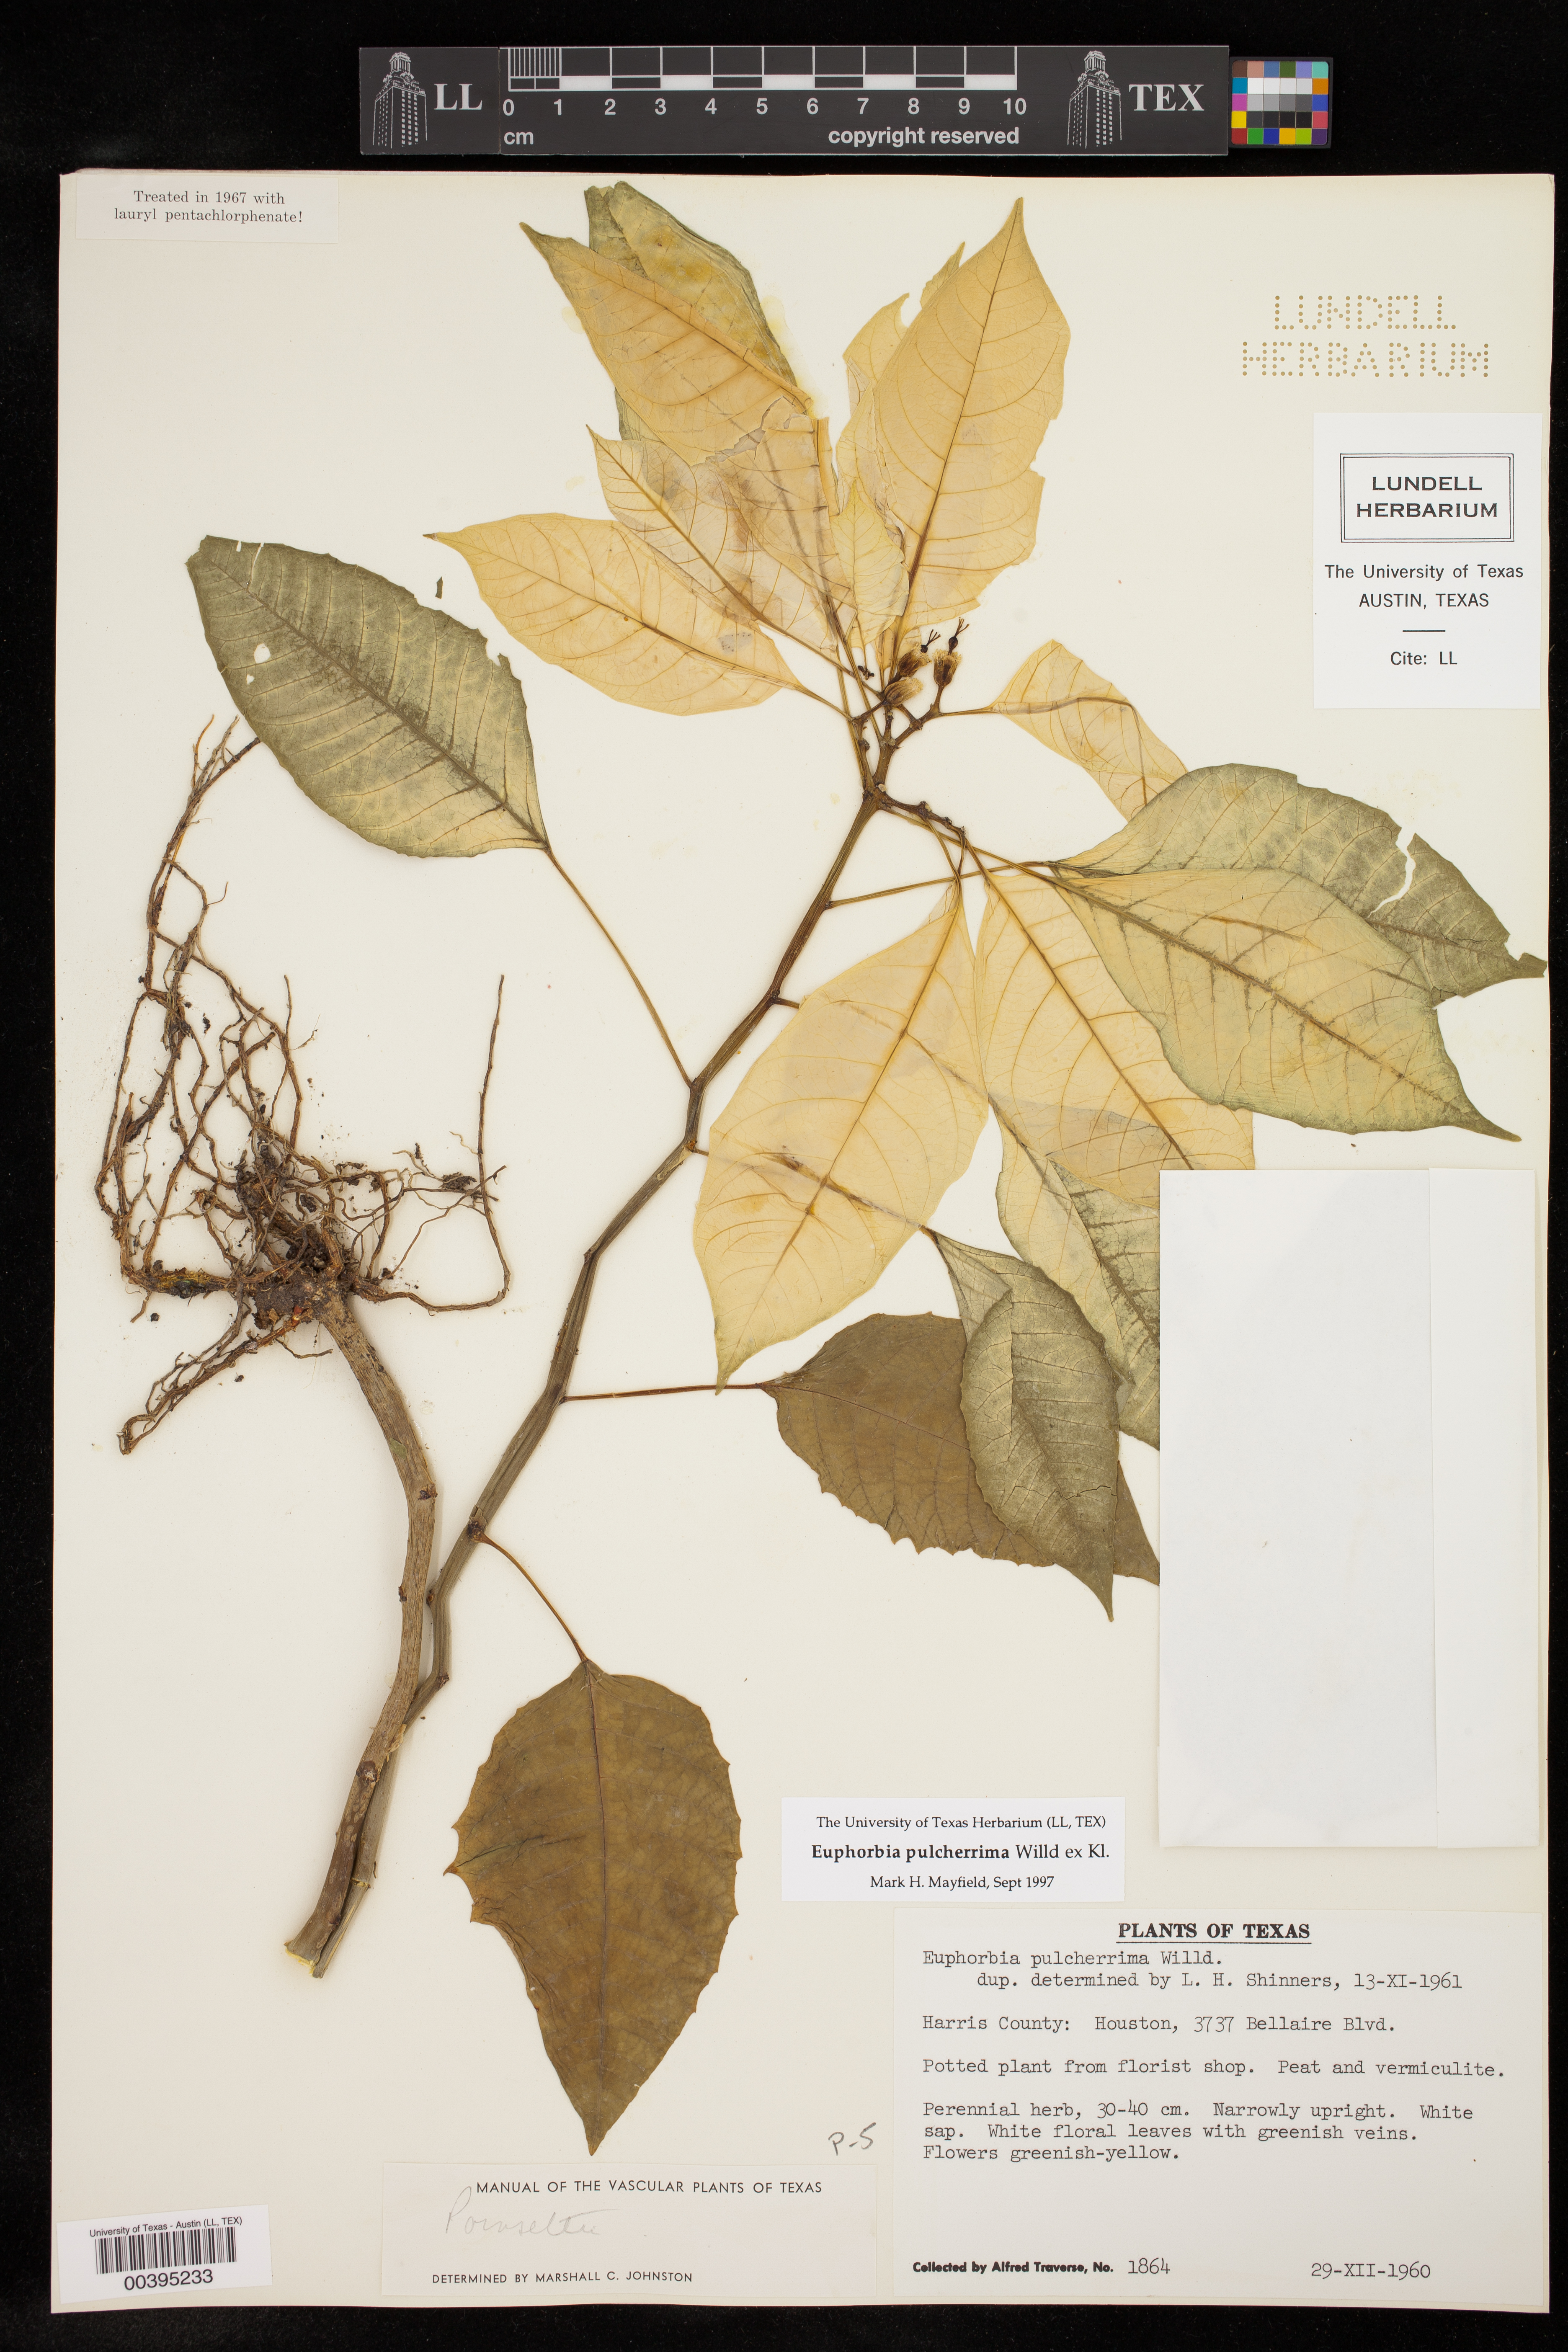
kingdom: Plantae
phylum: Tracheophyta
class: Magnoliopsida
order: Malpighiales
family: Euphorbiaceae
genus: Euphorbia
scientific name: Euphorbia pulcherrima
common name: Christmas-flower
